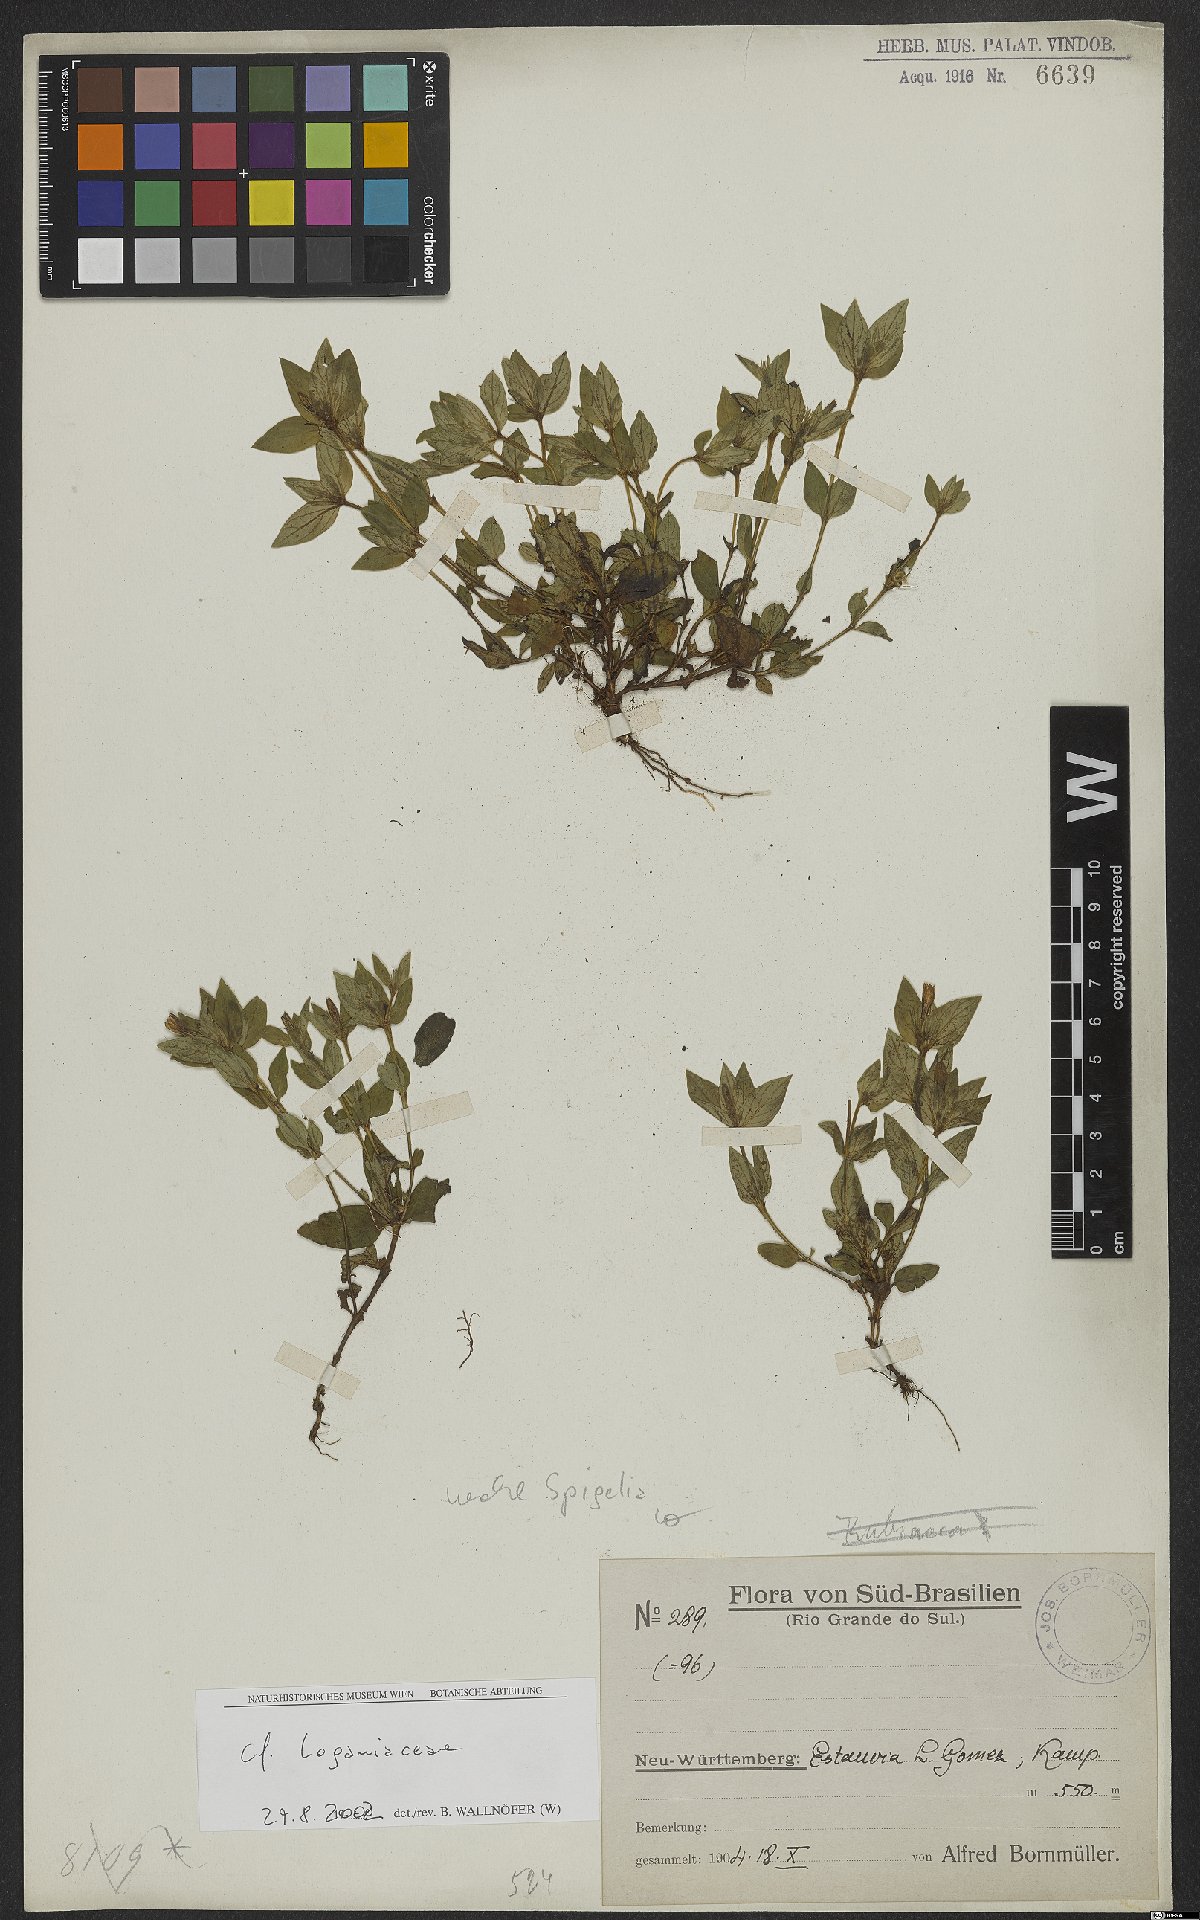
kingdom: Plantae
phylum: Tracheophyta
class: Magnoliopsida
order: Gentianales
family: Loganiaceae
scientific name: Loganiaceae
